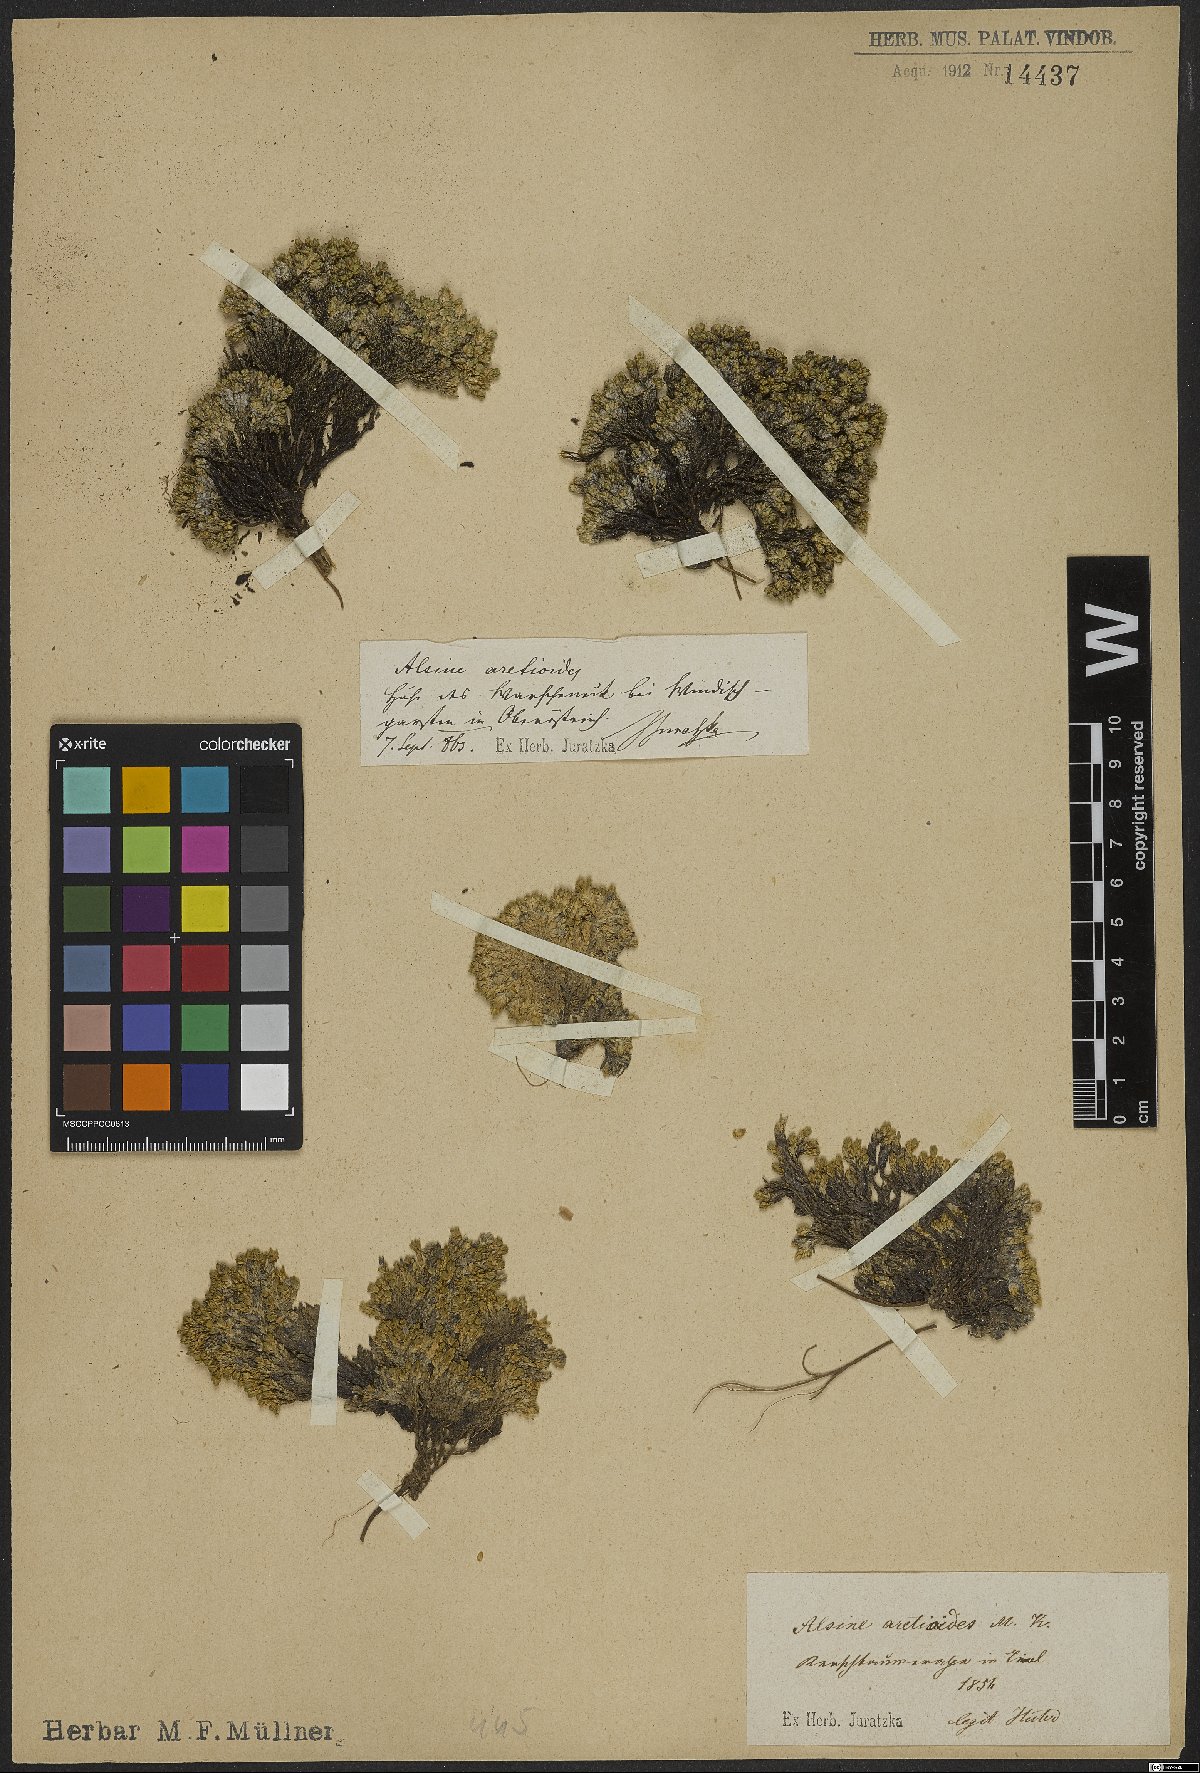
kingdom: Plantae
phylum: Tracheophyta
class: Magnoliopsida
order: Caryophyllales
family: Caryophyllaceae
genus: Facchinia
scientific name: Facchinia cherlerioides
